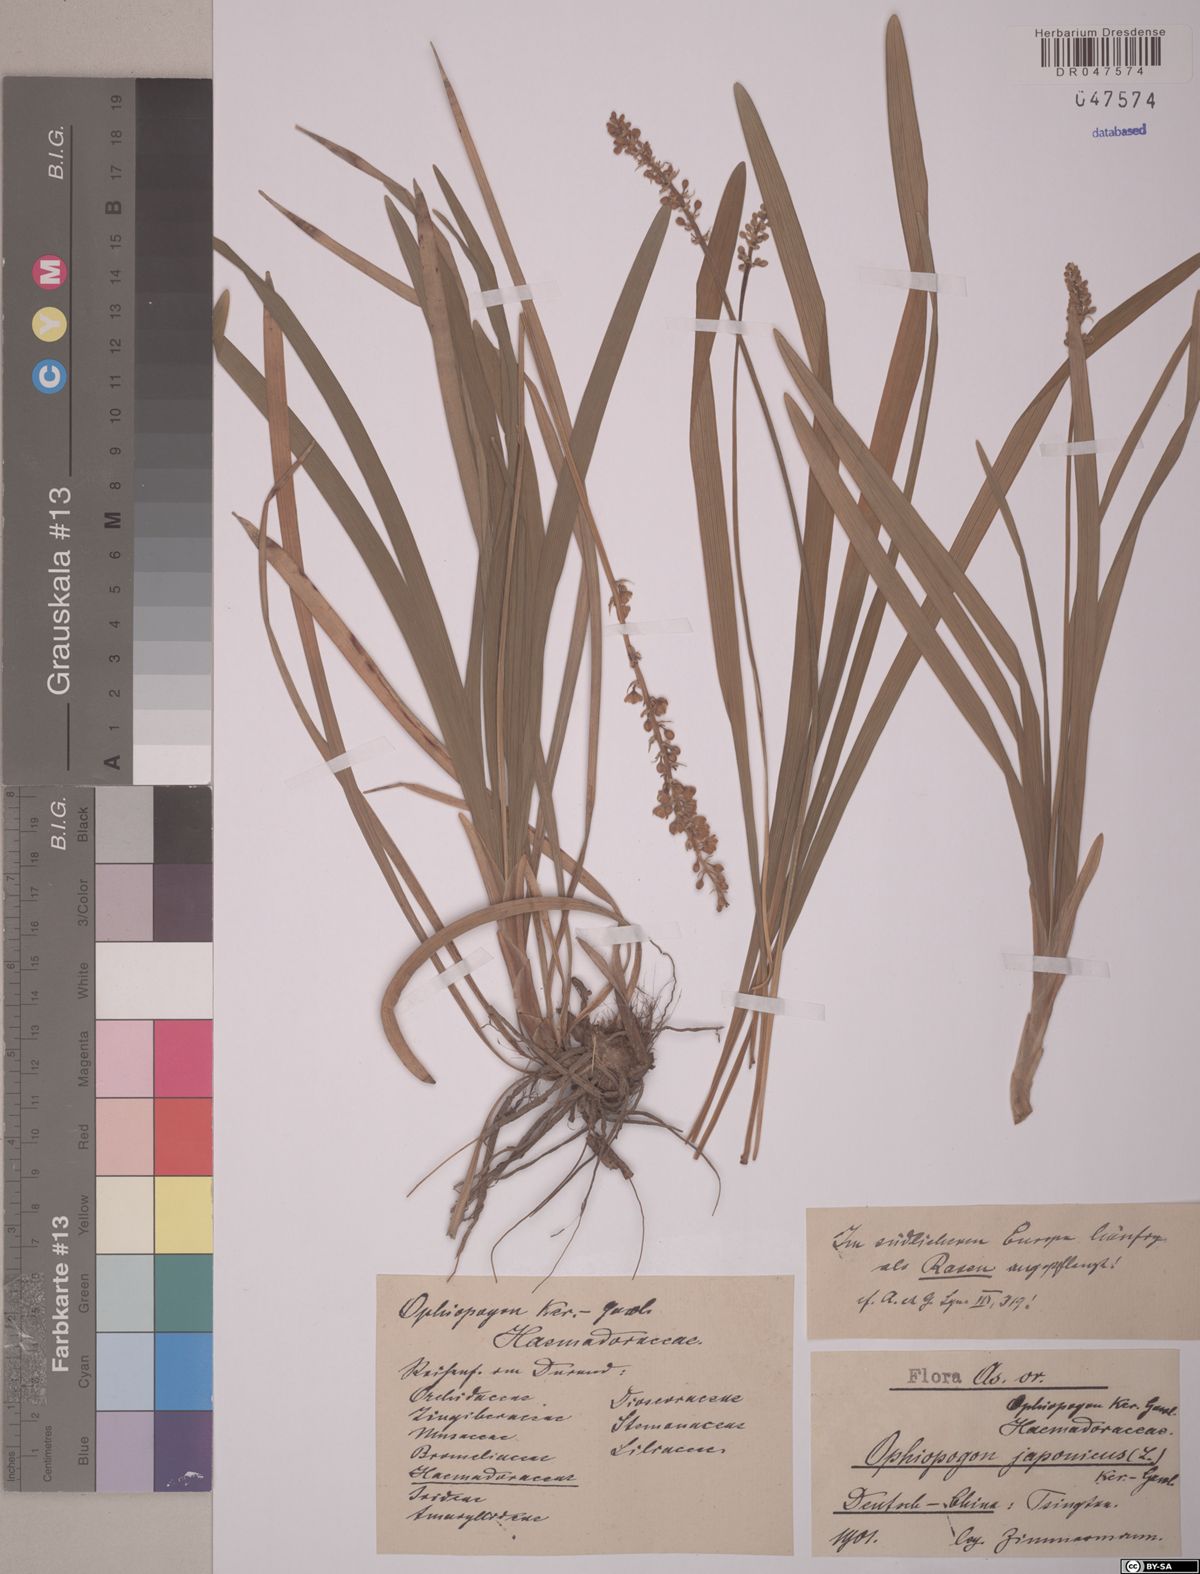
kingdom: Plantae
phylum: Tracheophyta
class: Liliopsida
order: Asparagales
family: Asparagaceae
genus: Ophiopogon
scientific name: Ophiopogon japonicus
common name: Dwarf lilyturf
